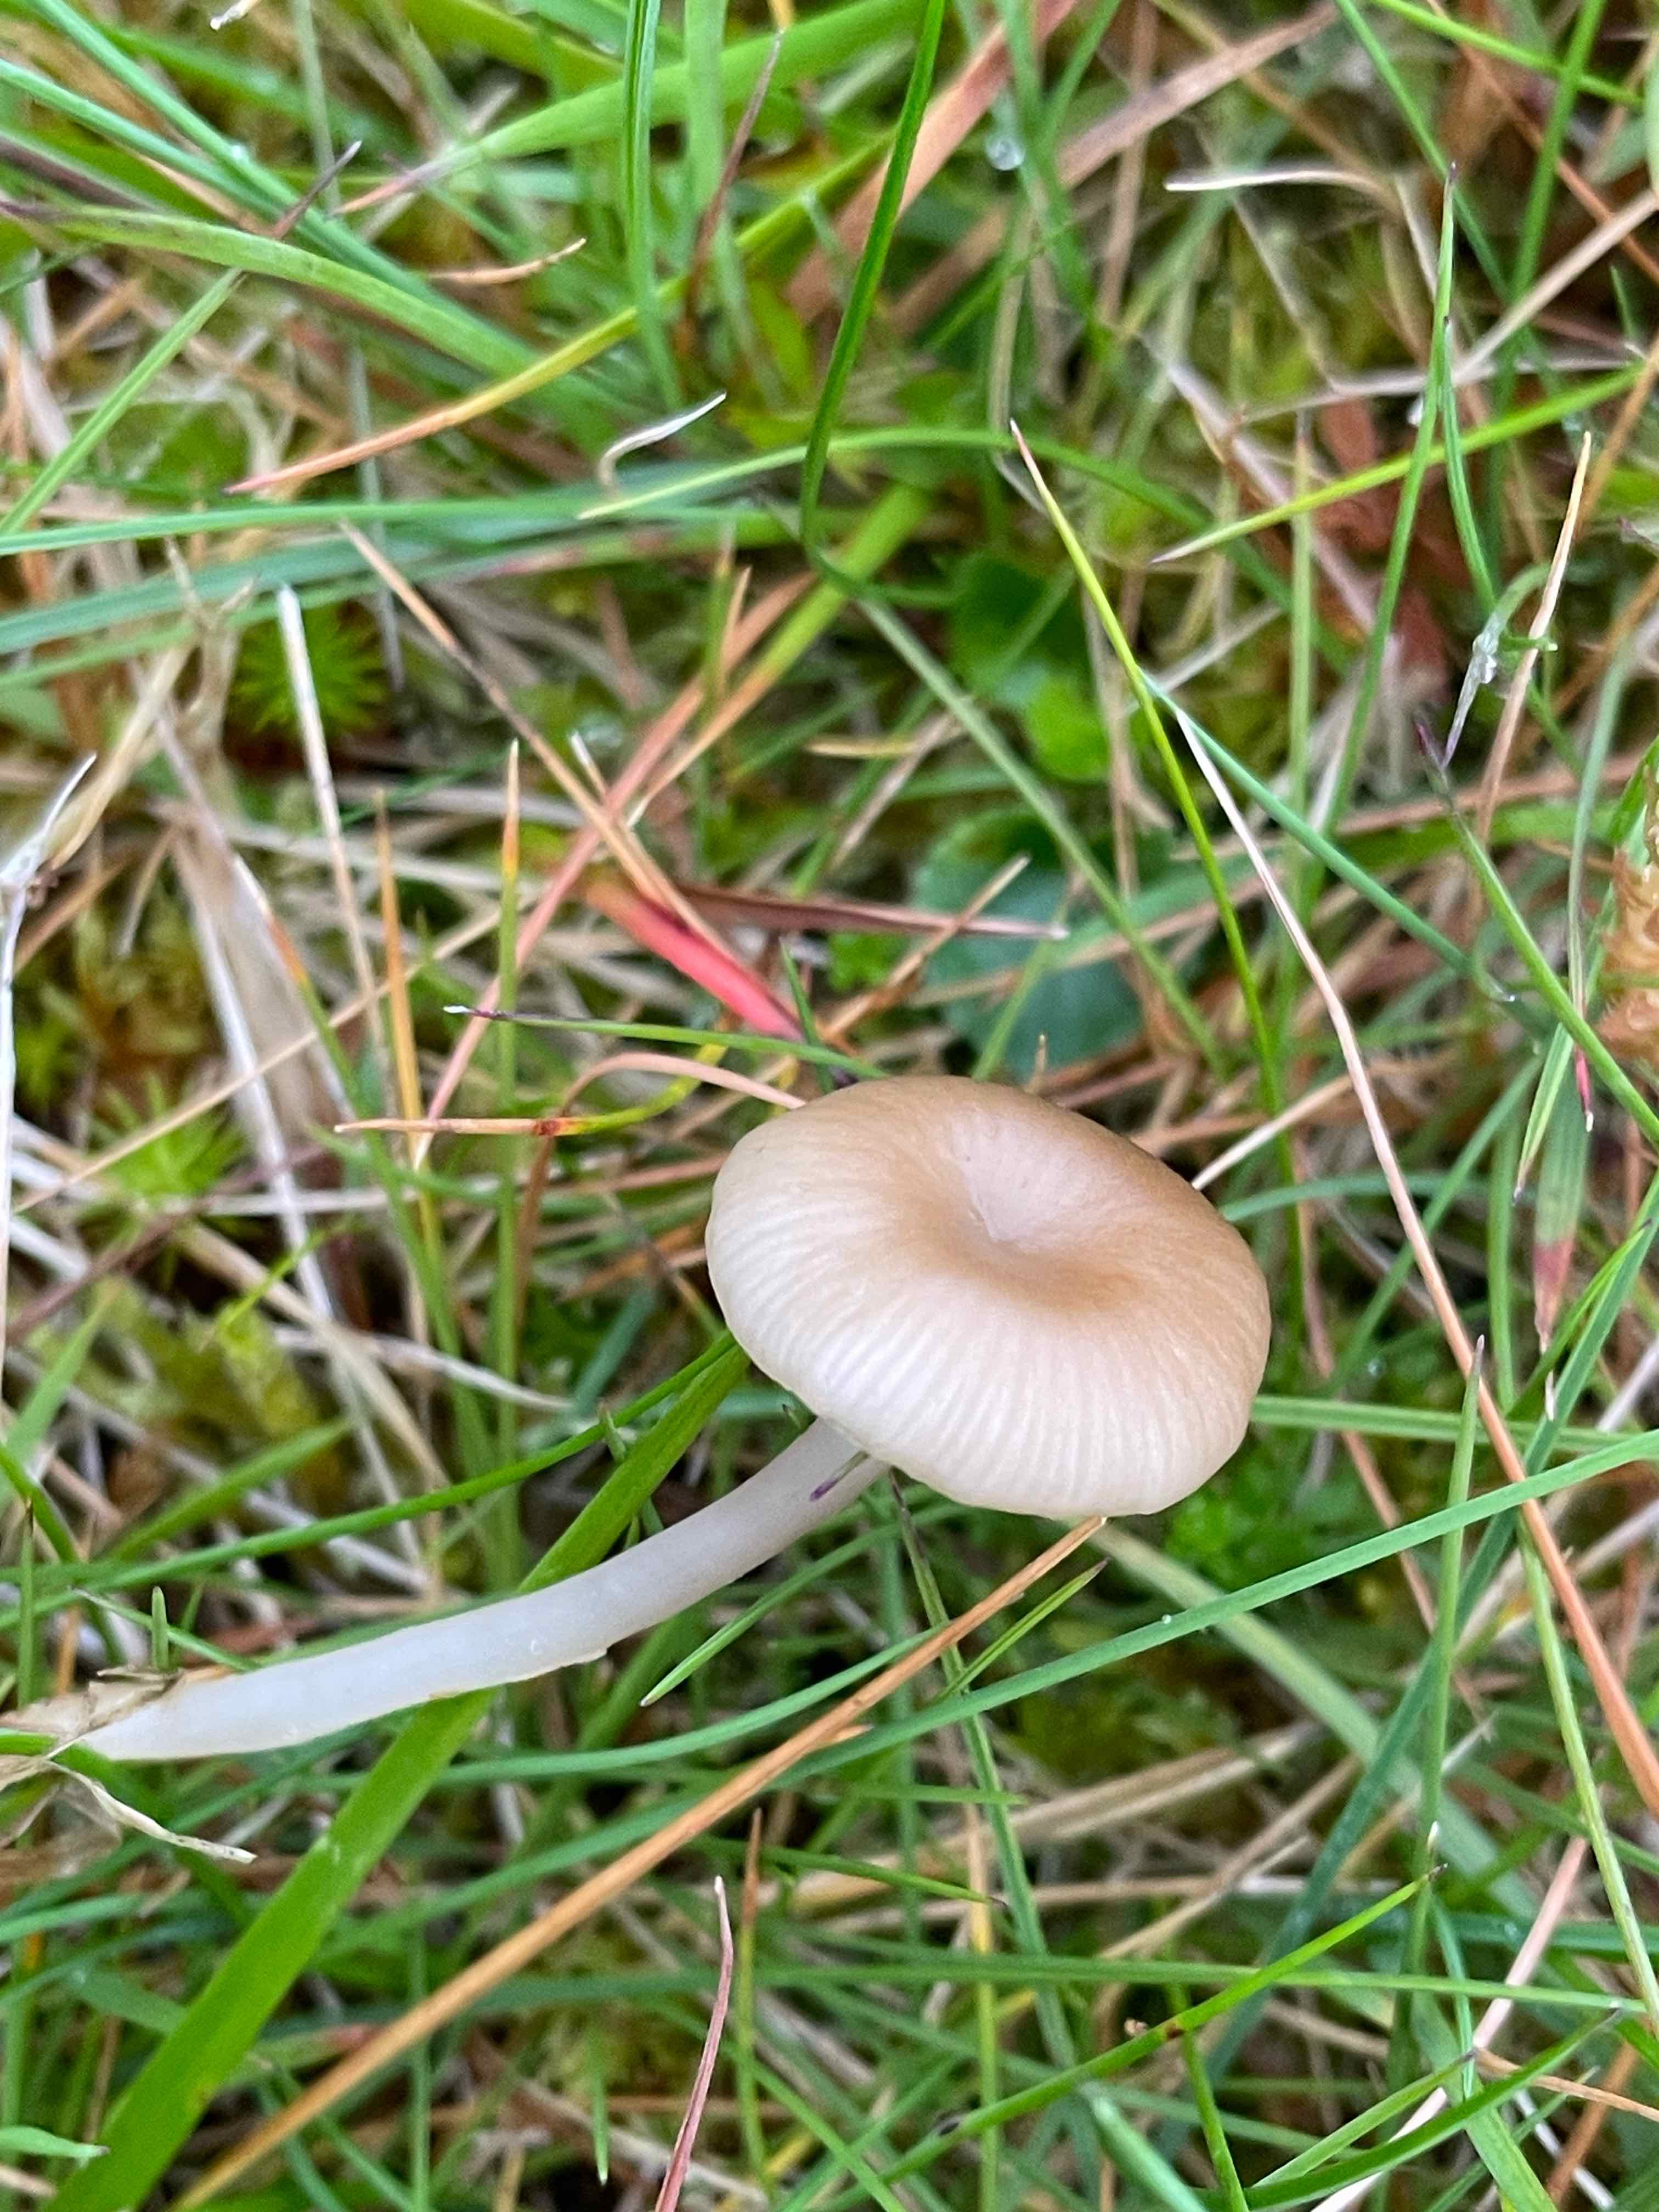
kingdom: Fungi
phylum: Basidiomycota
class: Agaricomycetes
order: Agaricales
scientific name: Agaricales
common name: champignonordenen
